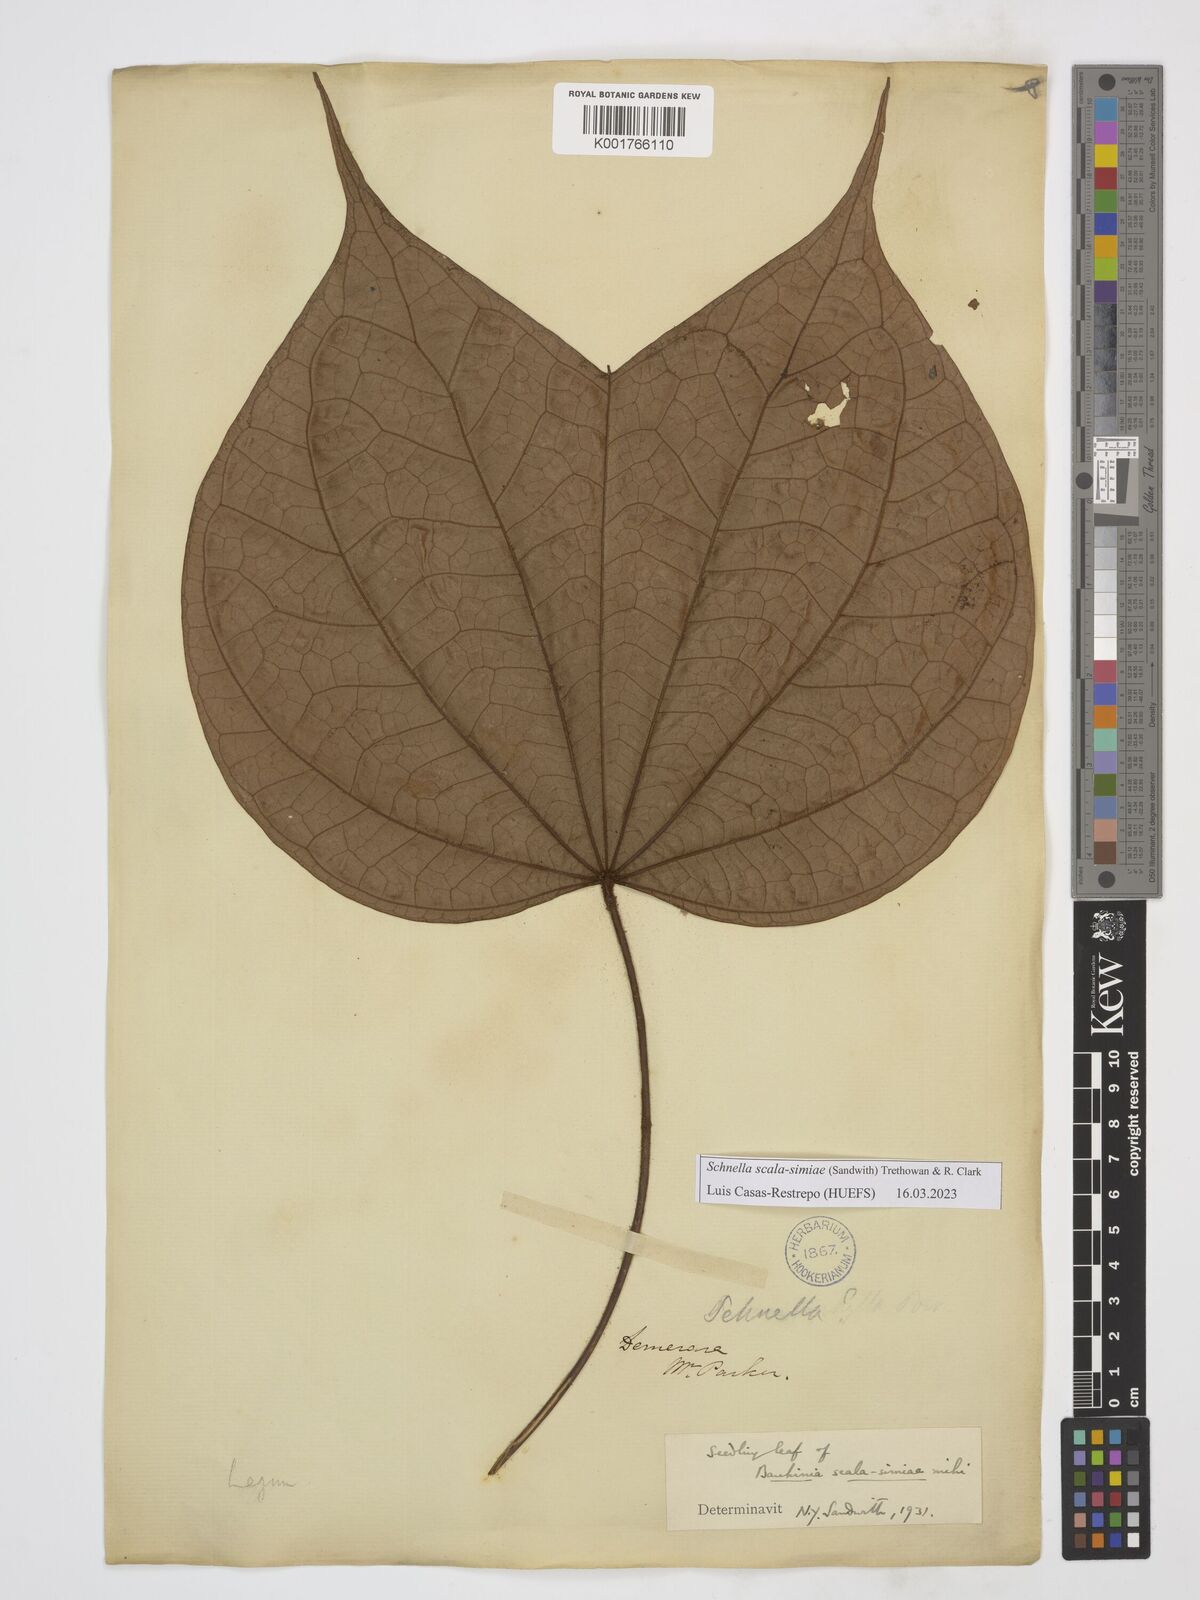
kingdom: Plantae
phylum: Tracheophyta
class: Magnoliopsida
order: Fabales
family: Fabaceae
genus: Schnella
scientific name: Schnella scala-simiae
